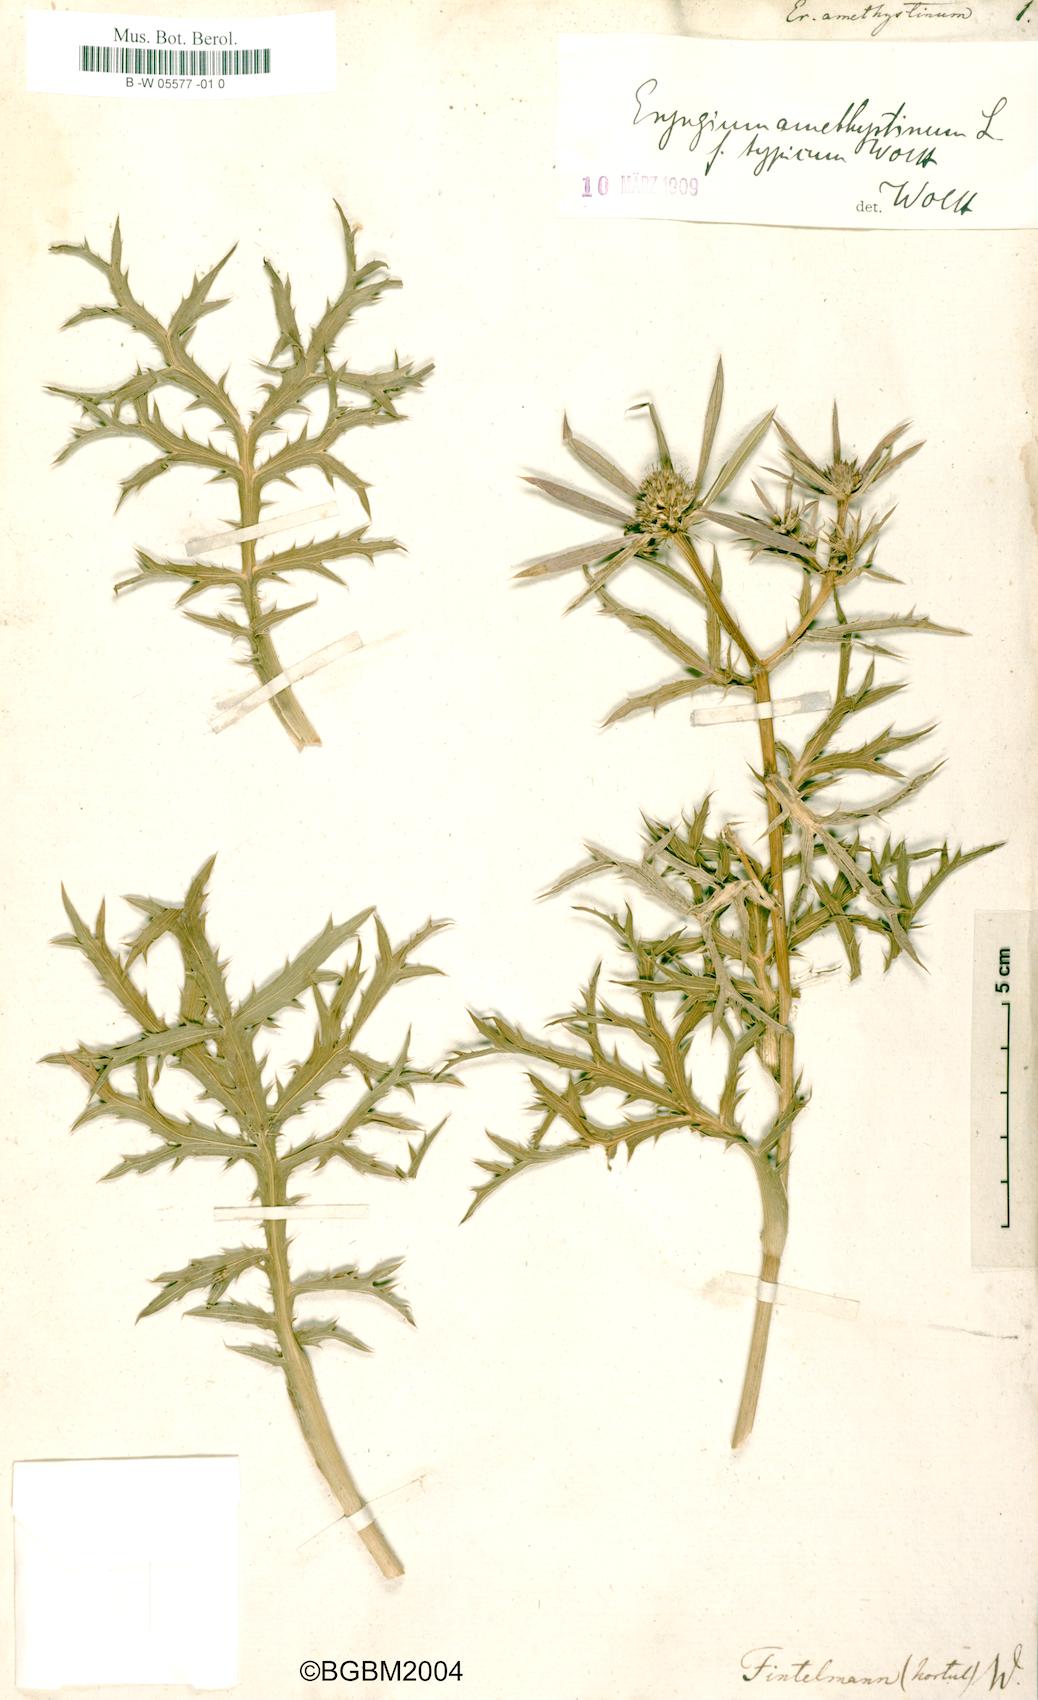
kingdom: Plantae
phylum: Tracheophyta
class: Magnoliopsida
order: Apiales
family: Apiaceae
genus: Eryngium
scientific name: Eryngium amethystinum
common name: Amethyst eryngo
